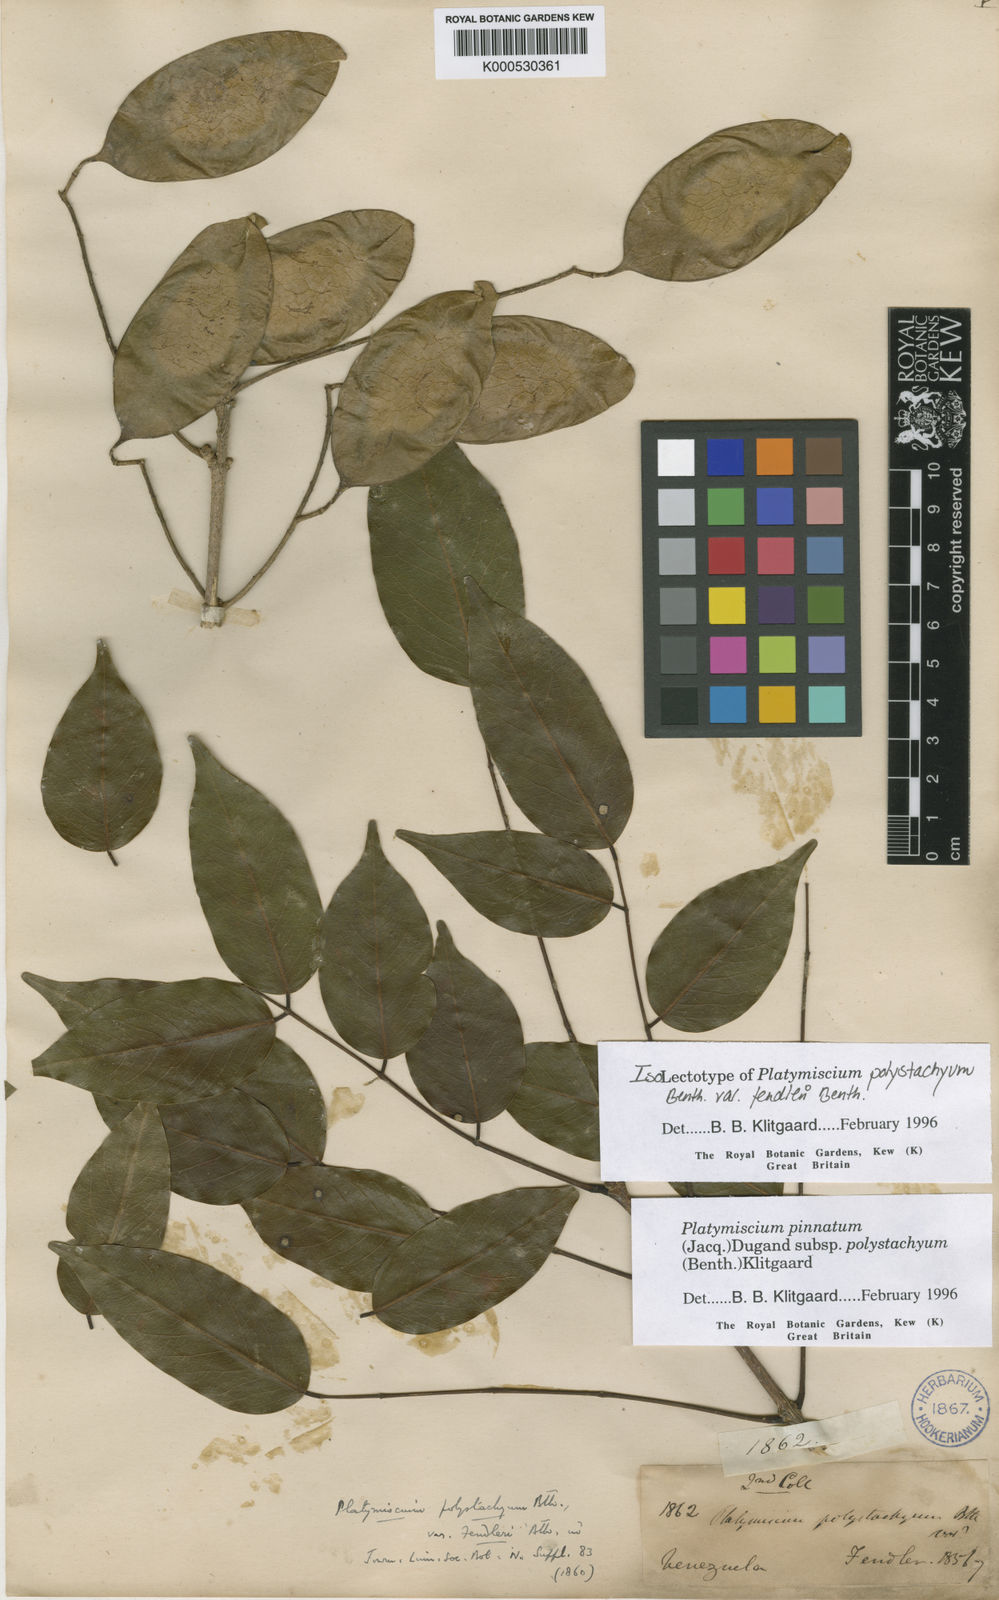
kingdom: Plantae
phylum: Tracheophyta
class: Magnoliopsida
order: Fabales
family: Fabaceae
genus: Platymiscium
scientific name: Platymiscium pinnatum
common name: Panama redwood
